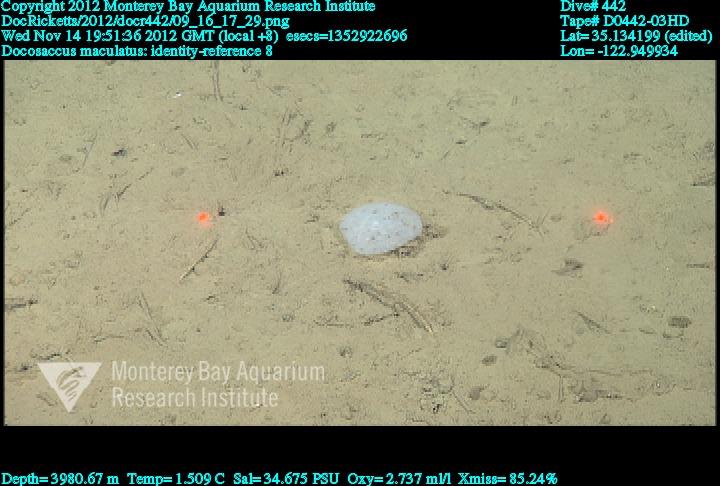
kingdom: Animalia
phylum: Porifera
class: Hexactinellida
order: Lyssacinosida
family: Euplectellidae
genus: Docosaccus
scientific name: Docosaccus maculatus
